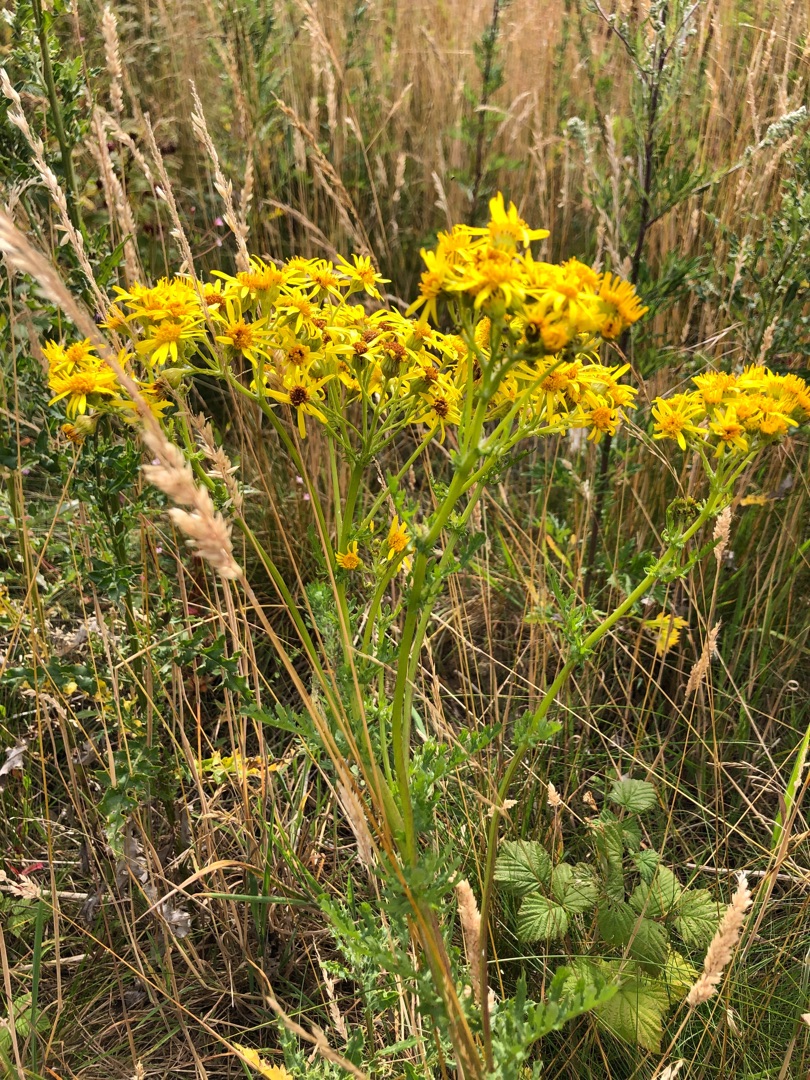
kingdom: Plantae
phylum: Tracheophyta
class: Magnoliopsida
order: Asterales
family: Asteraceae
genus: Jacobaea
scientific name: Jacobaea vulgaris
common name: Eng-brandbæger
